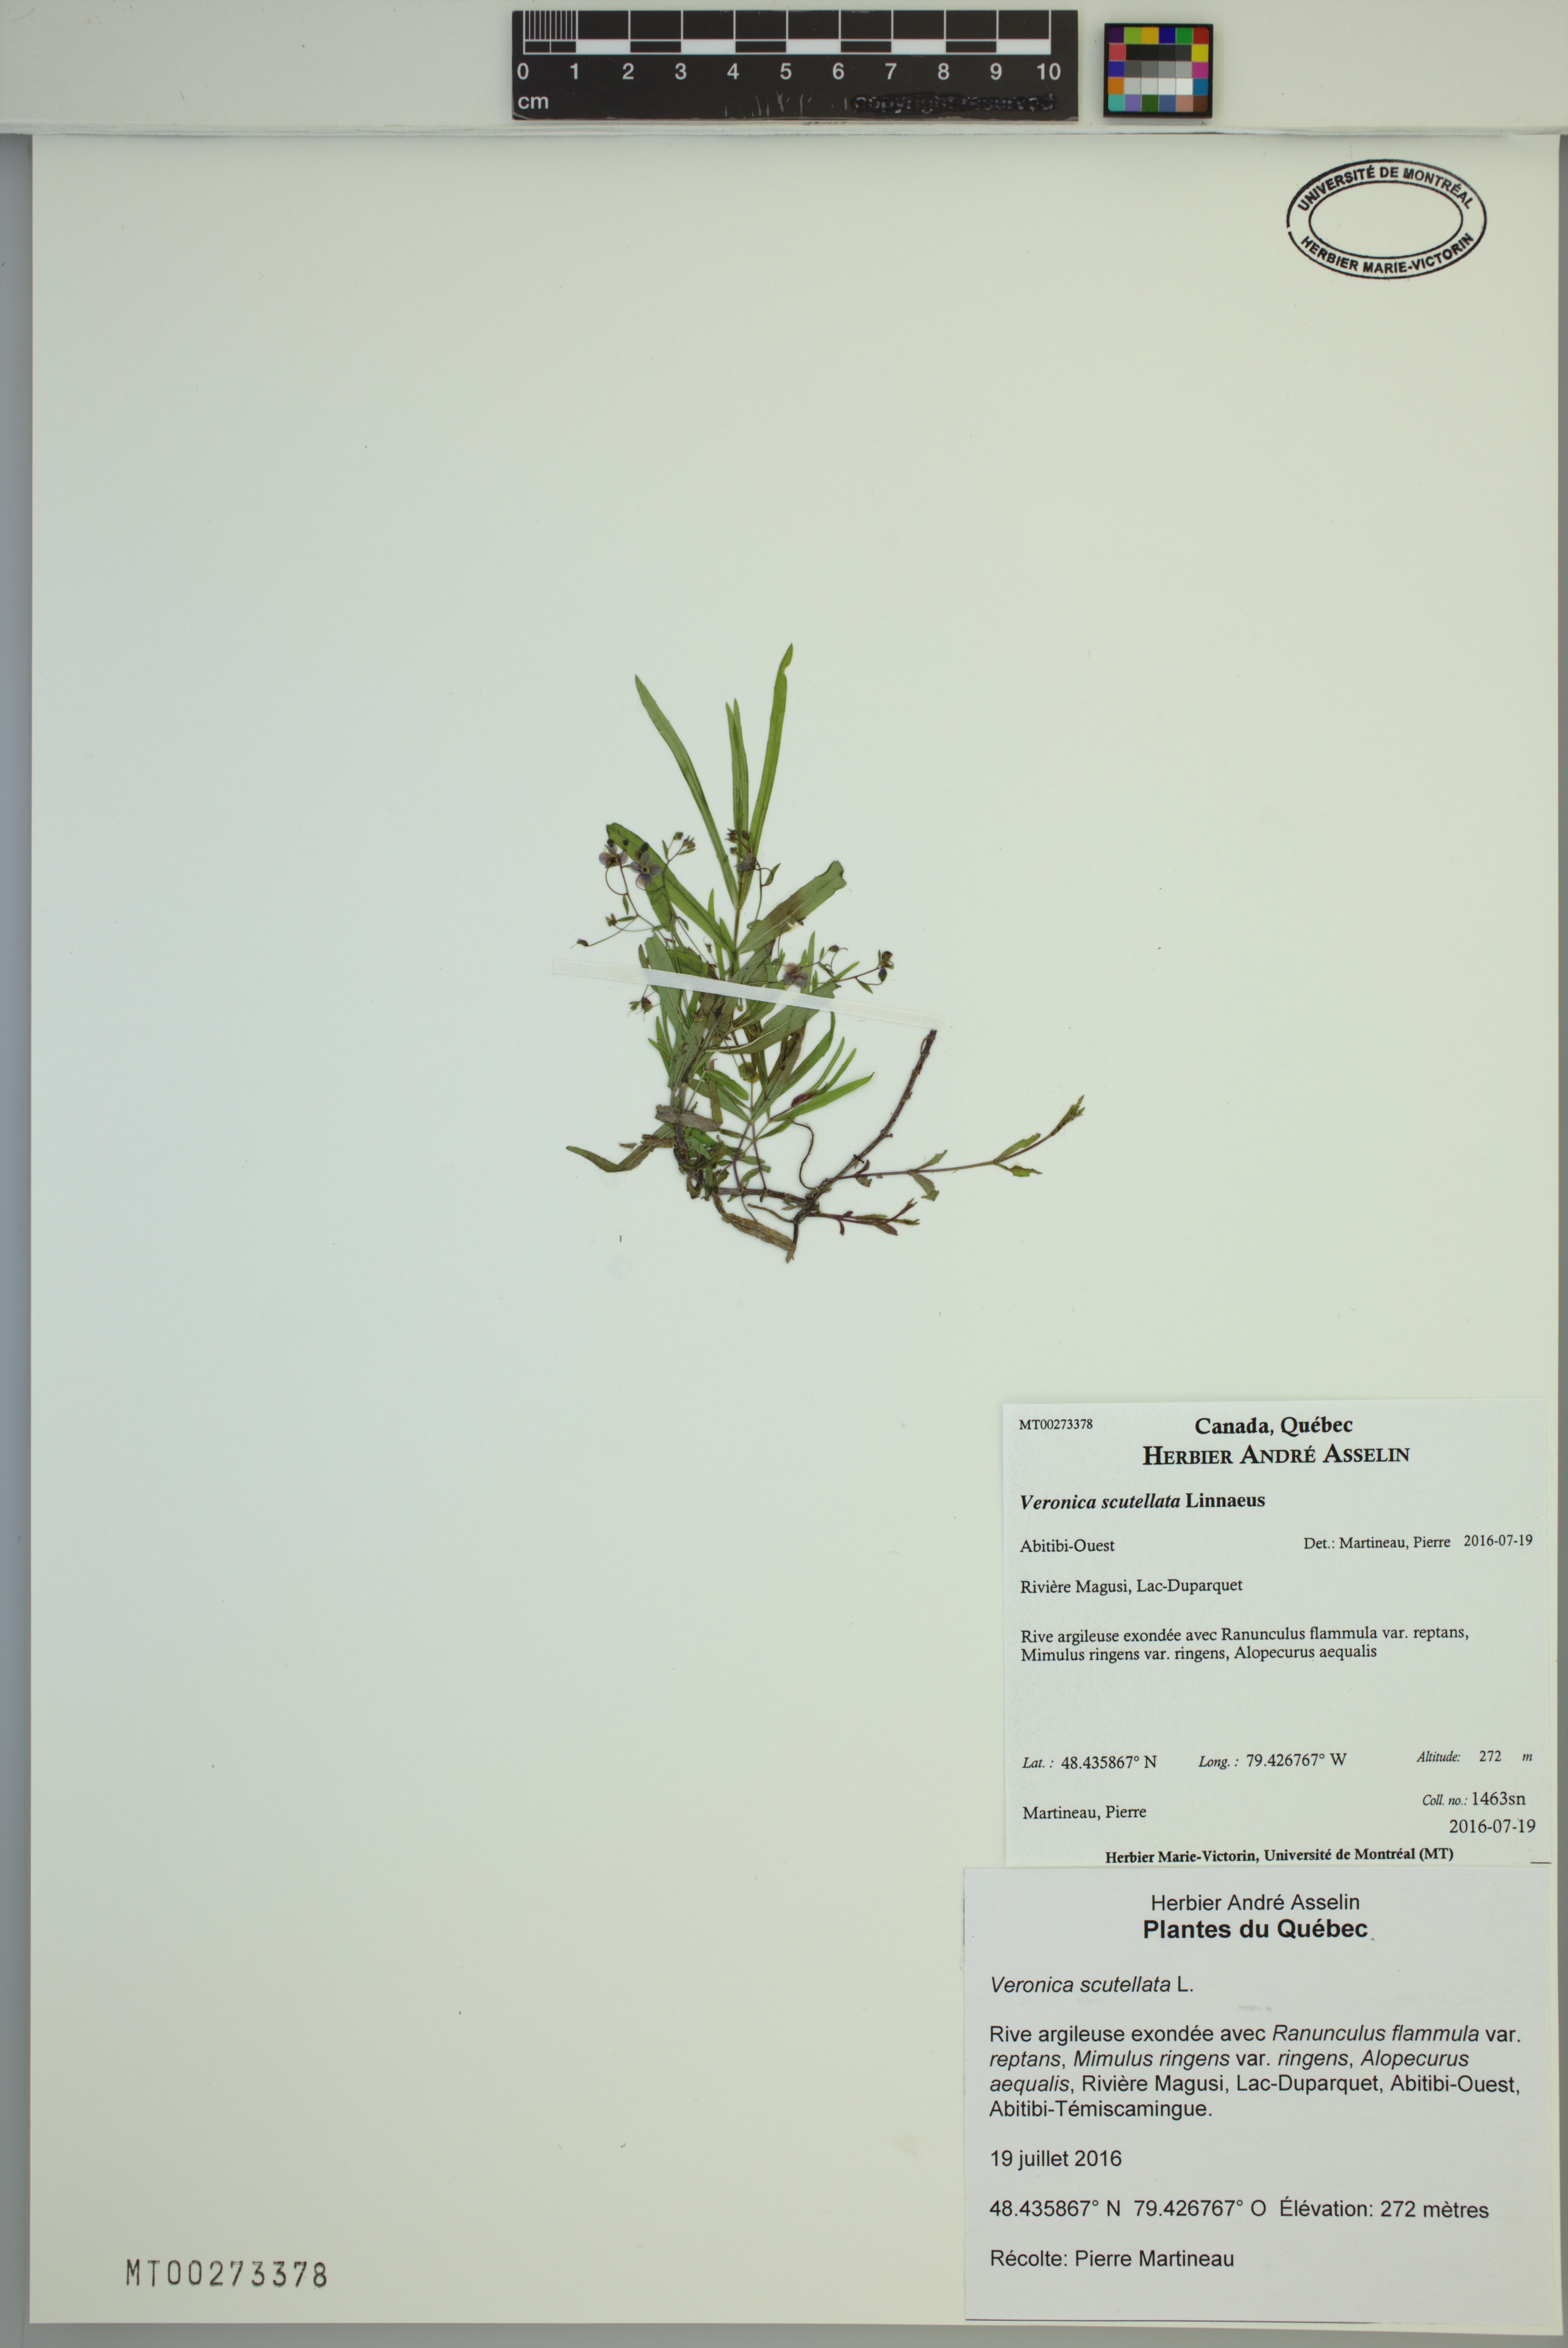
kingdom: Plantae
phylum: Tracheophyta
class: Magnoliopsida
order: Lamiales
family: Plantaginaceae
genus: Veronica
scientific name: Veronica scutellata
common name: Marsh speedwell
